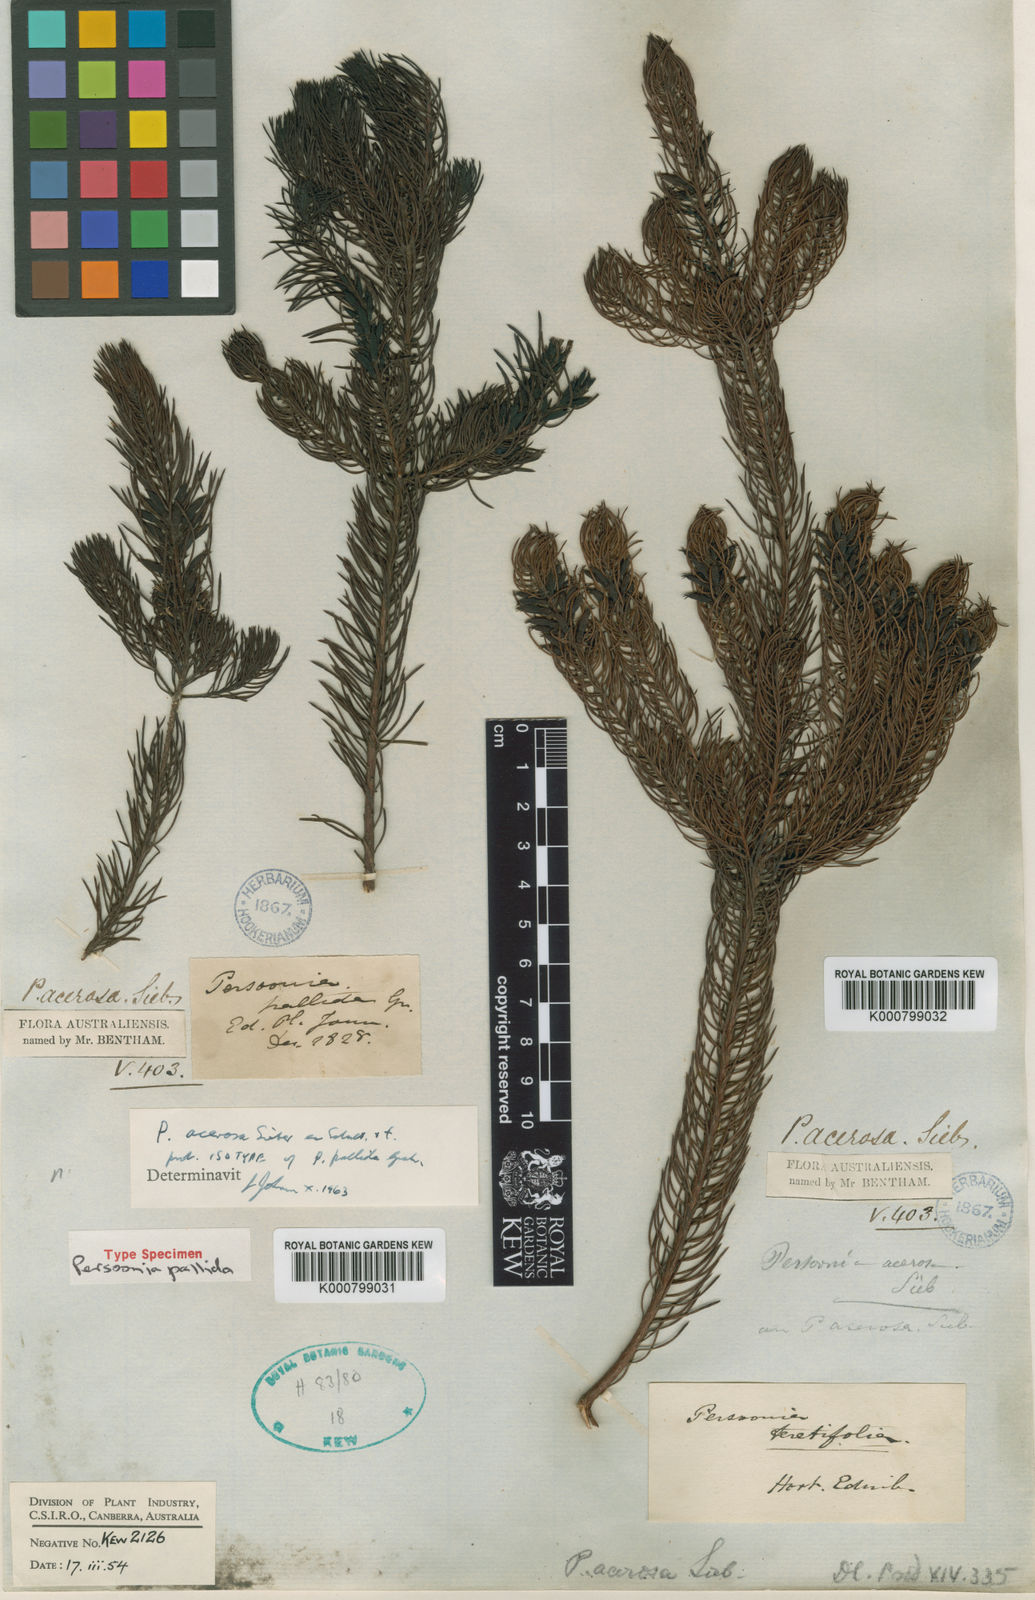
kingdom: Plantae
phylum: Tracheophyta
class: Magnoliopsida
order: Proteales
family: Proteaceae
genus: Persoonia
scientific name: Persoonia
